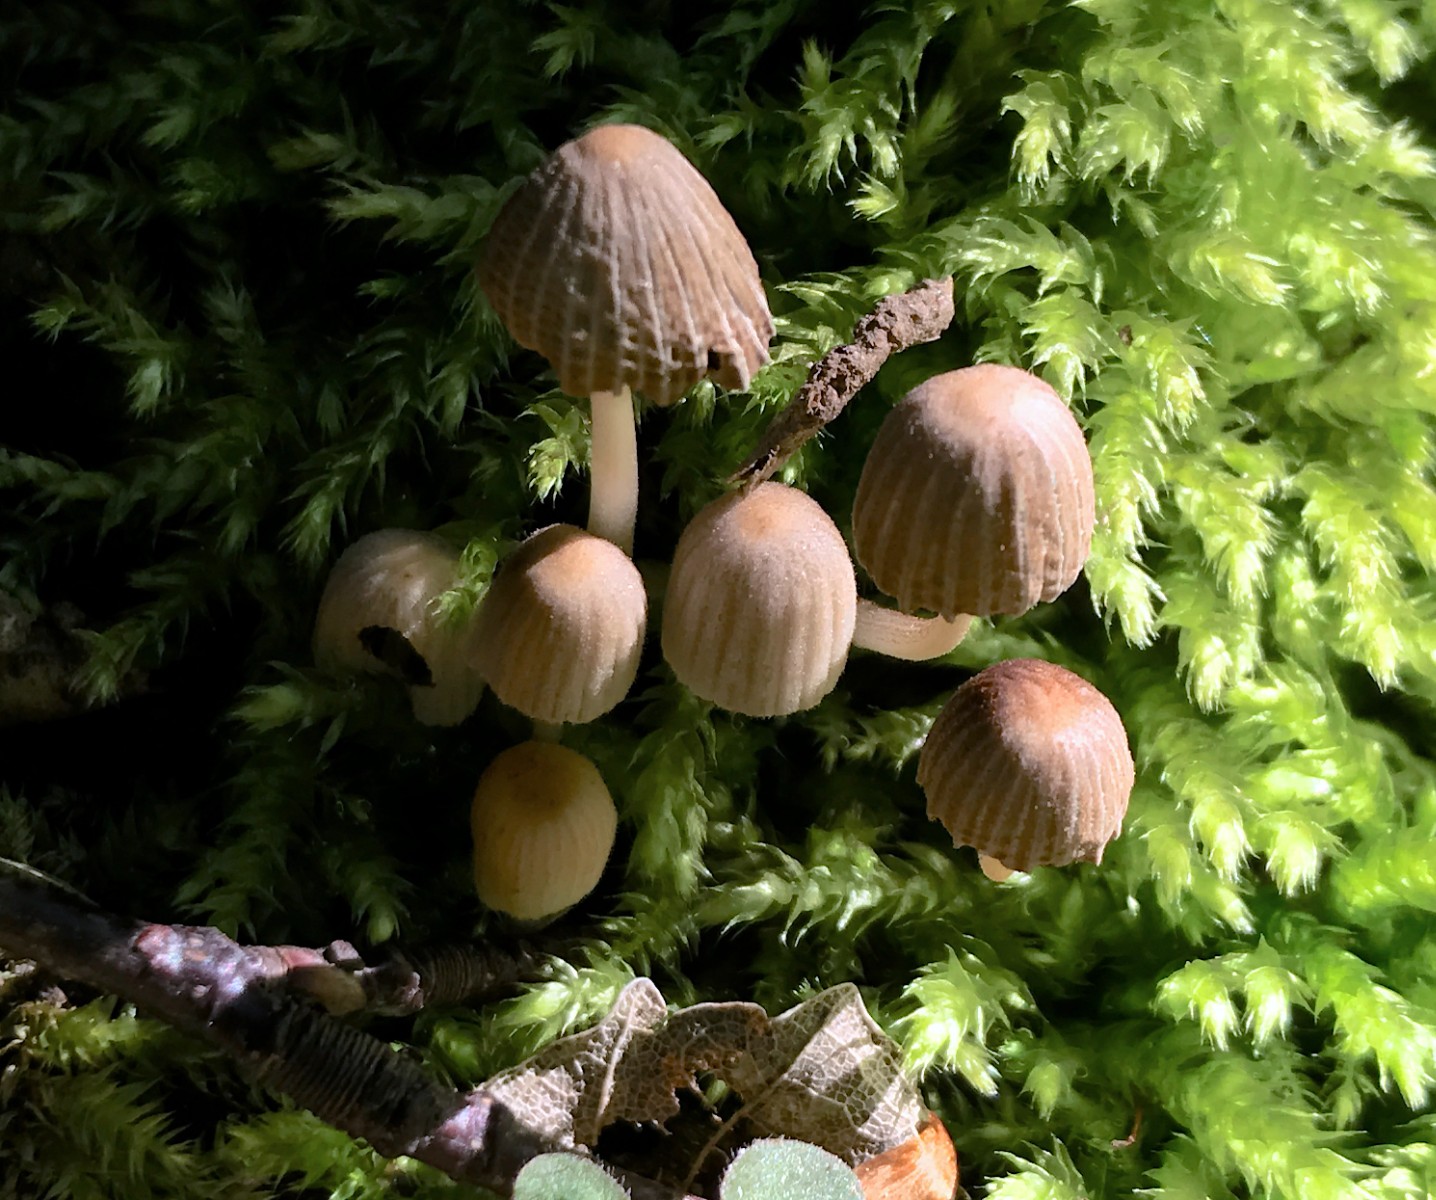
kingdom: Fungi
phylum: Basidiomycota
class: Agaricomycetes
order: Agaricales
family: Psathyrellaceae
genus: Coprinellus
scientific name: Coprinellus disseminatus
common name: bredsået blækhat
